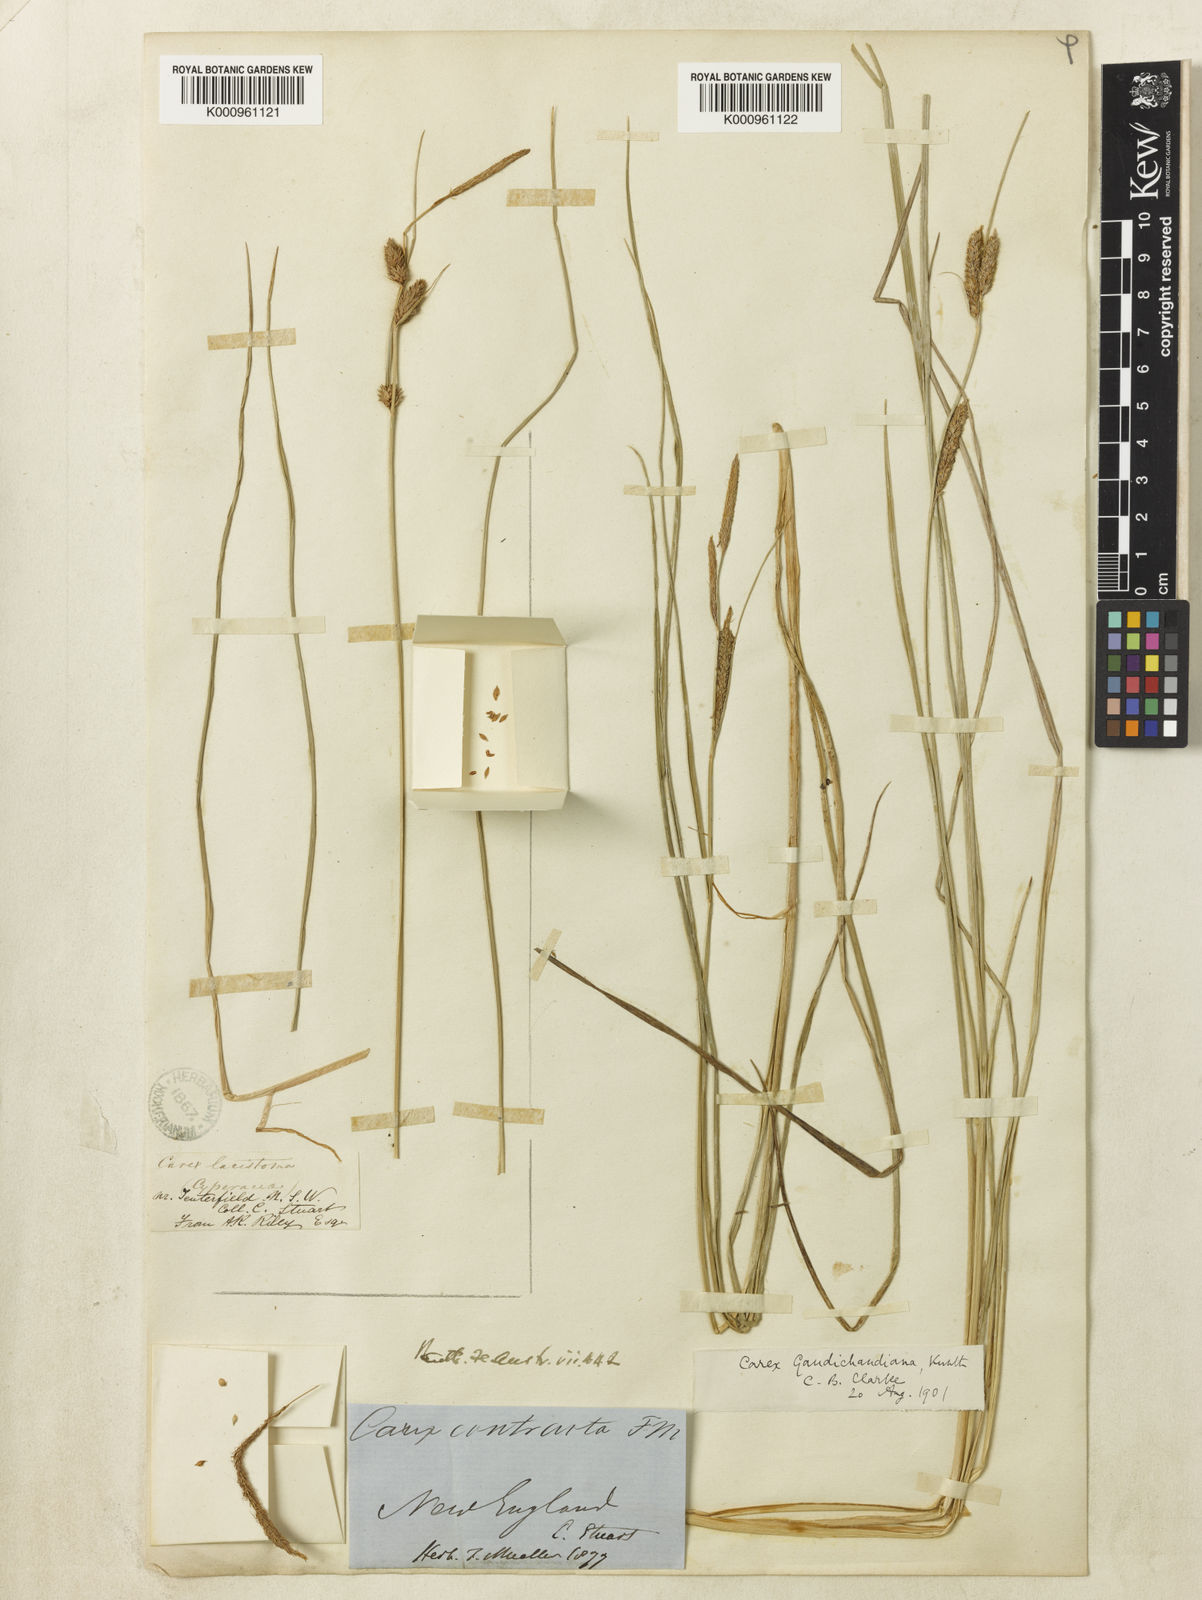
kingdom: Plantae
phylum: Tracheophyta
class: Liliopsida
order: Poales
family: Cyperaceae
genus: Carex
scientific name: Carex gaudichaudiana
